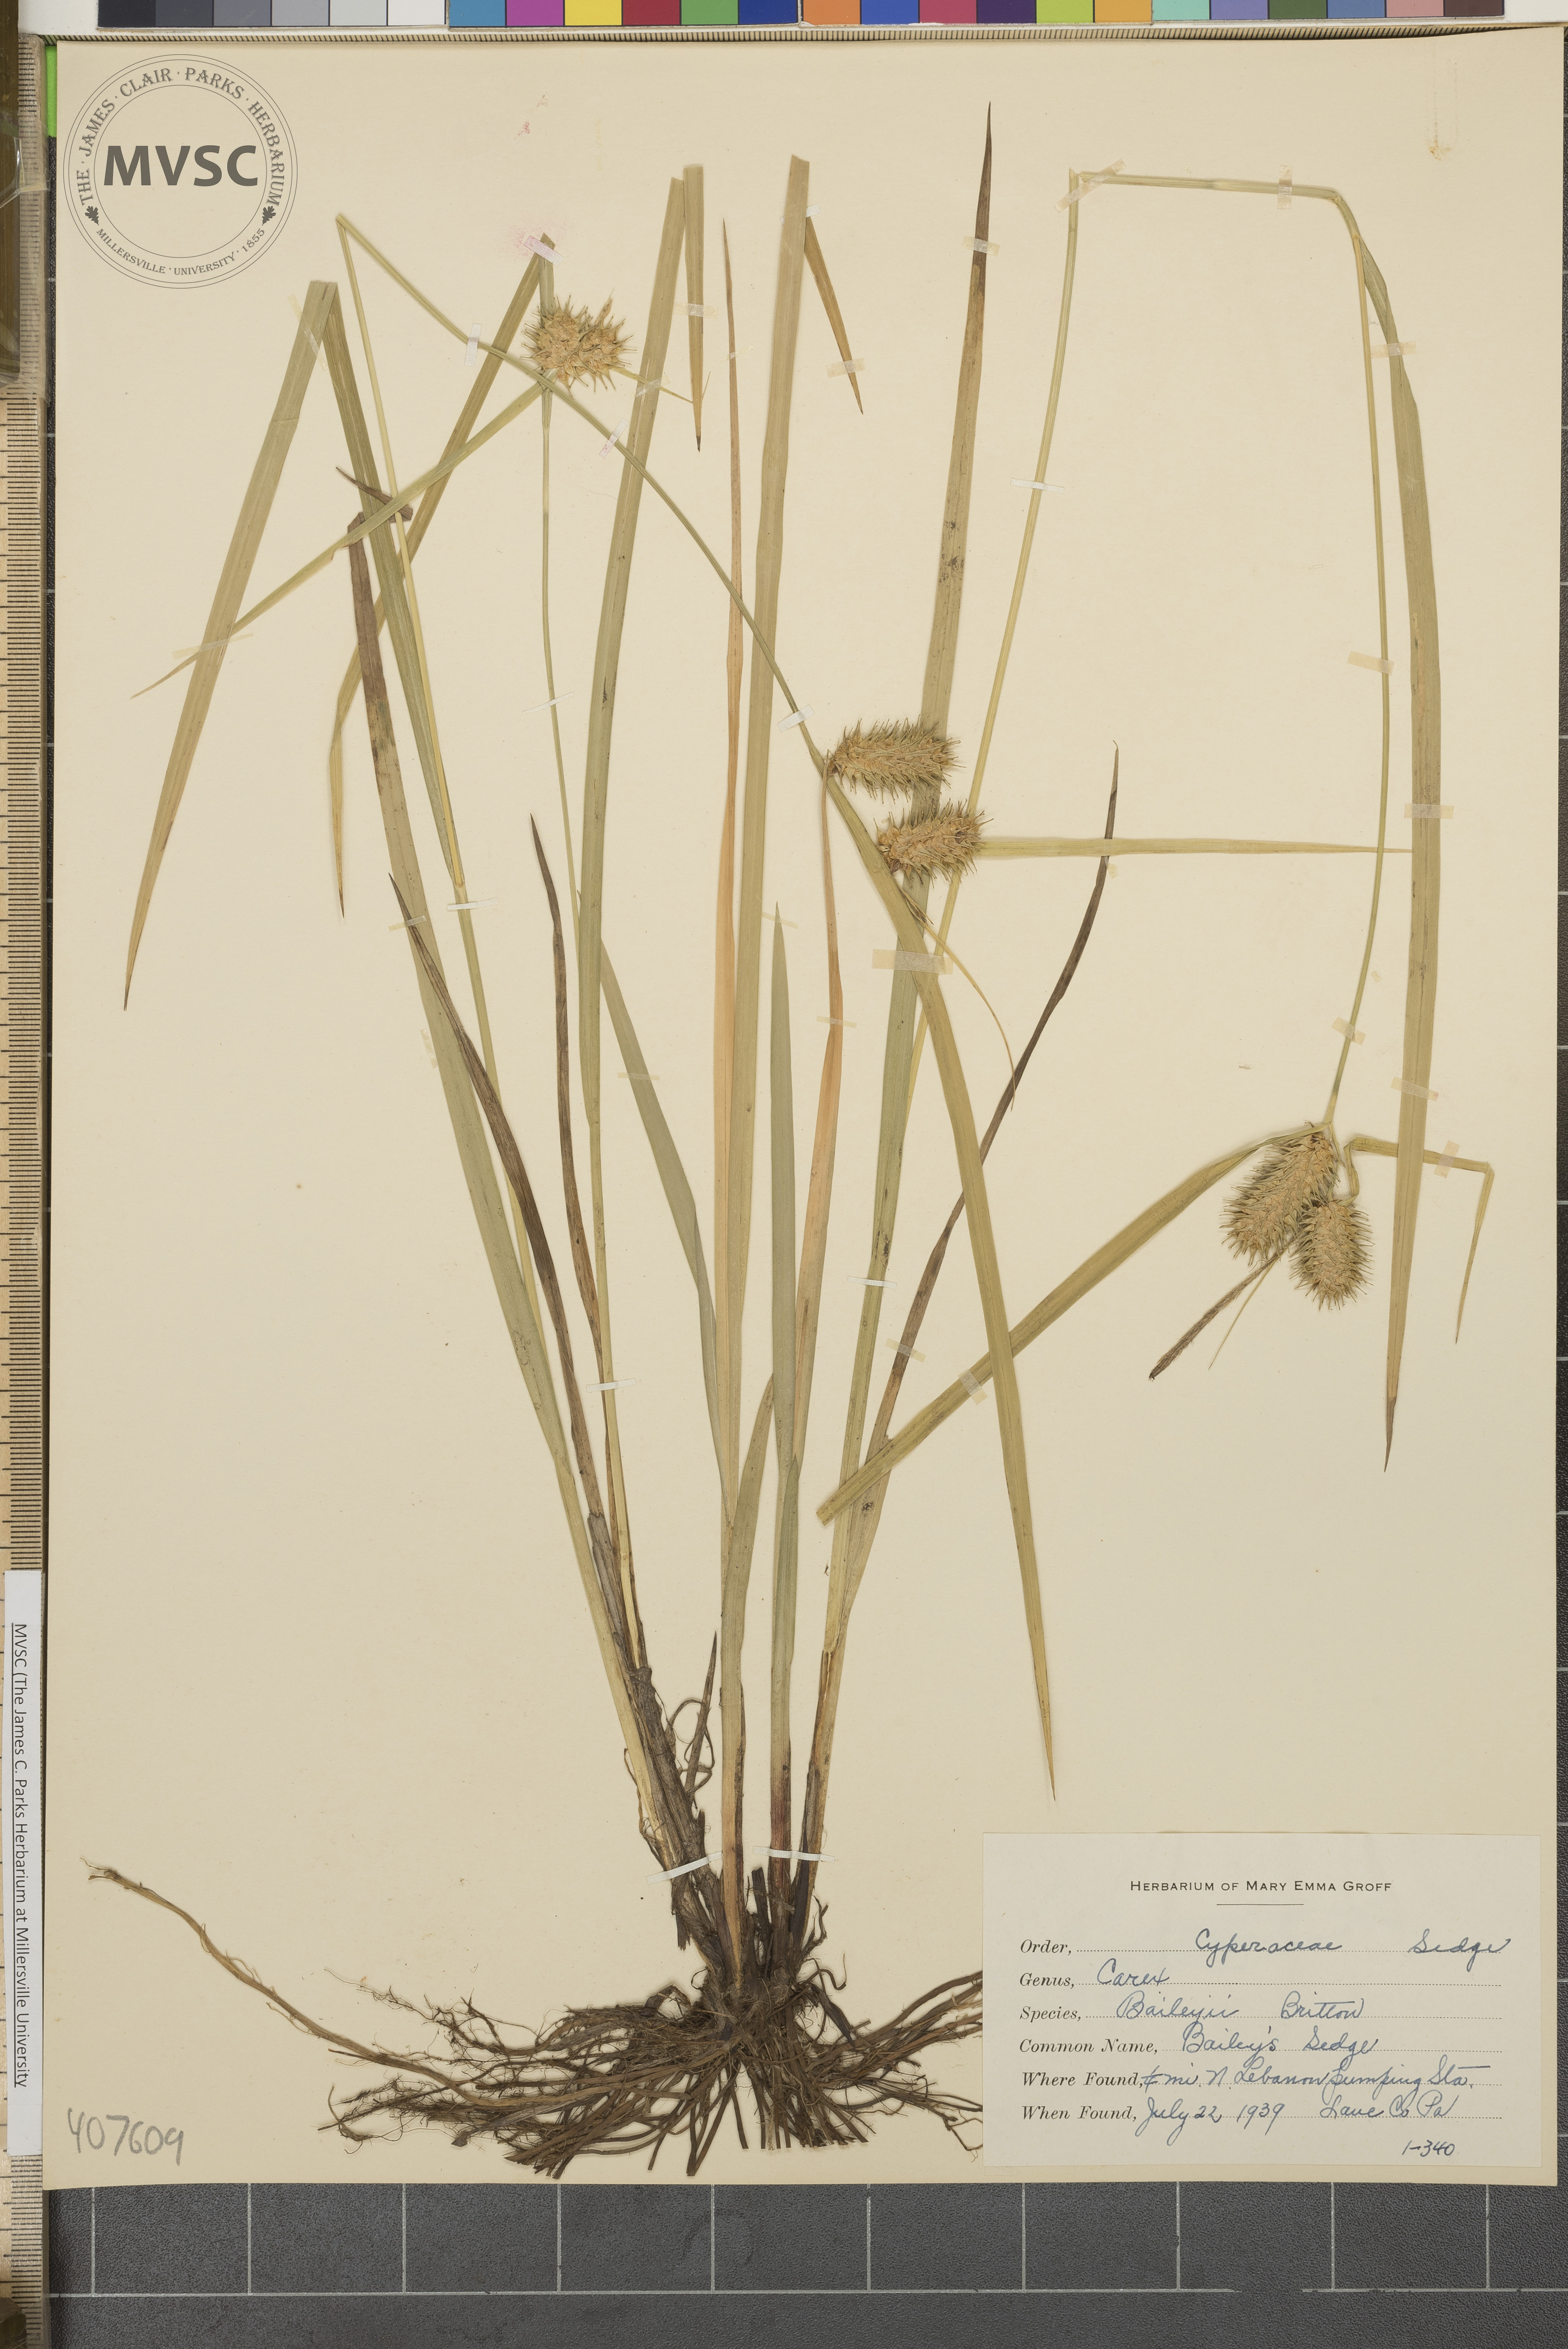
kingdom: Plantae
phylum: Tracheophyta
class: Liliopsida
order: Poales
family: Cyperaceae
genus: Carex
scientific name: Carex lurida
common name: Sallow sedge
